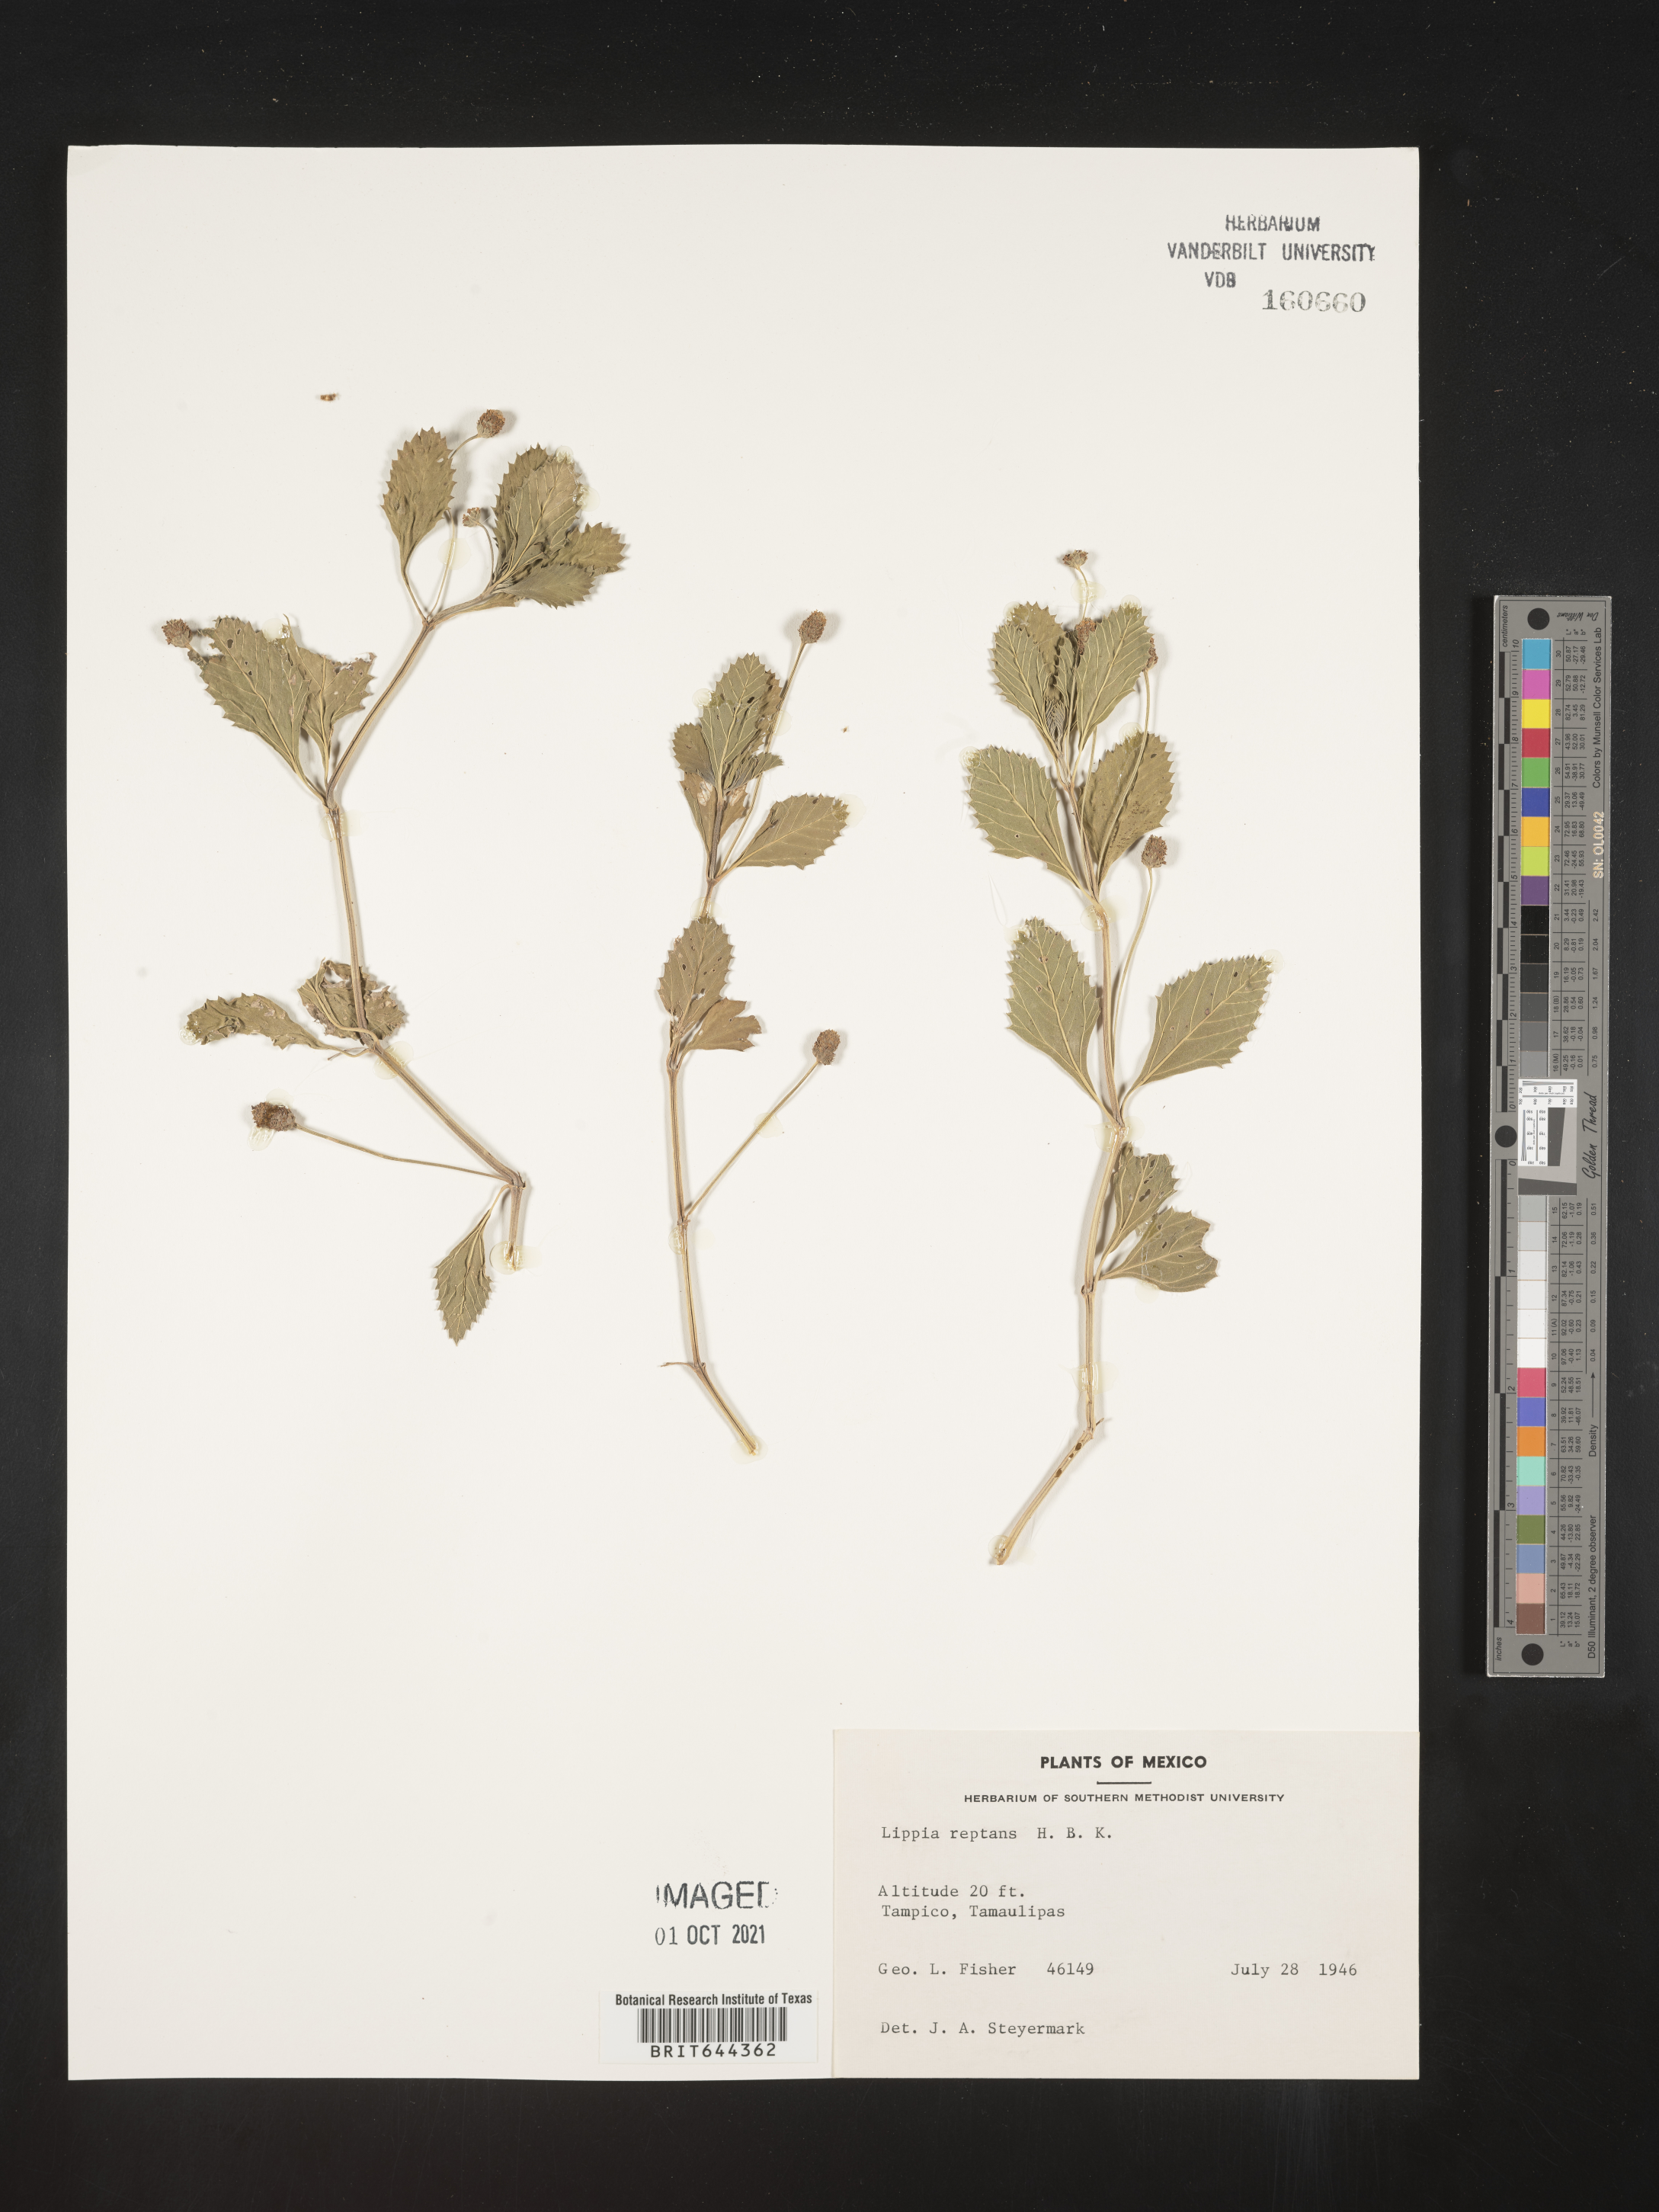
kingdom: Plantae
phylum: Tracheophyta
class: Magnoliopsida
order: Lamiales
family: Verbenaceae
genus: Lippia
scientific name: Lippia
